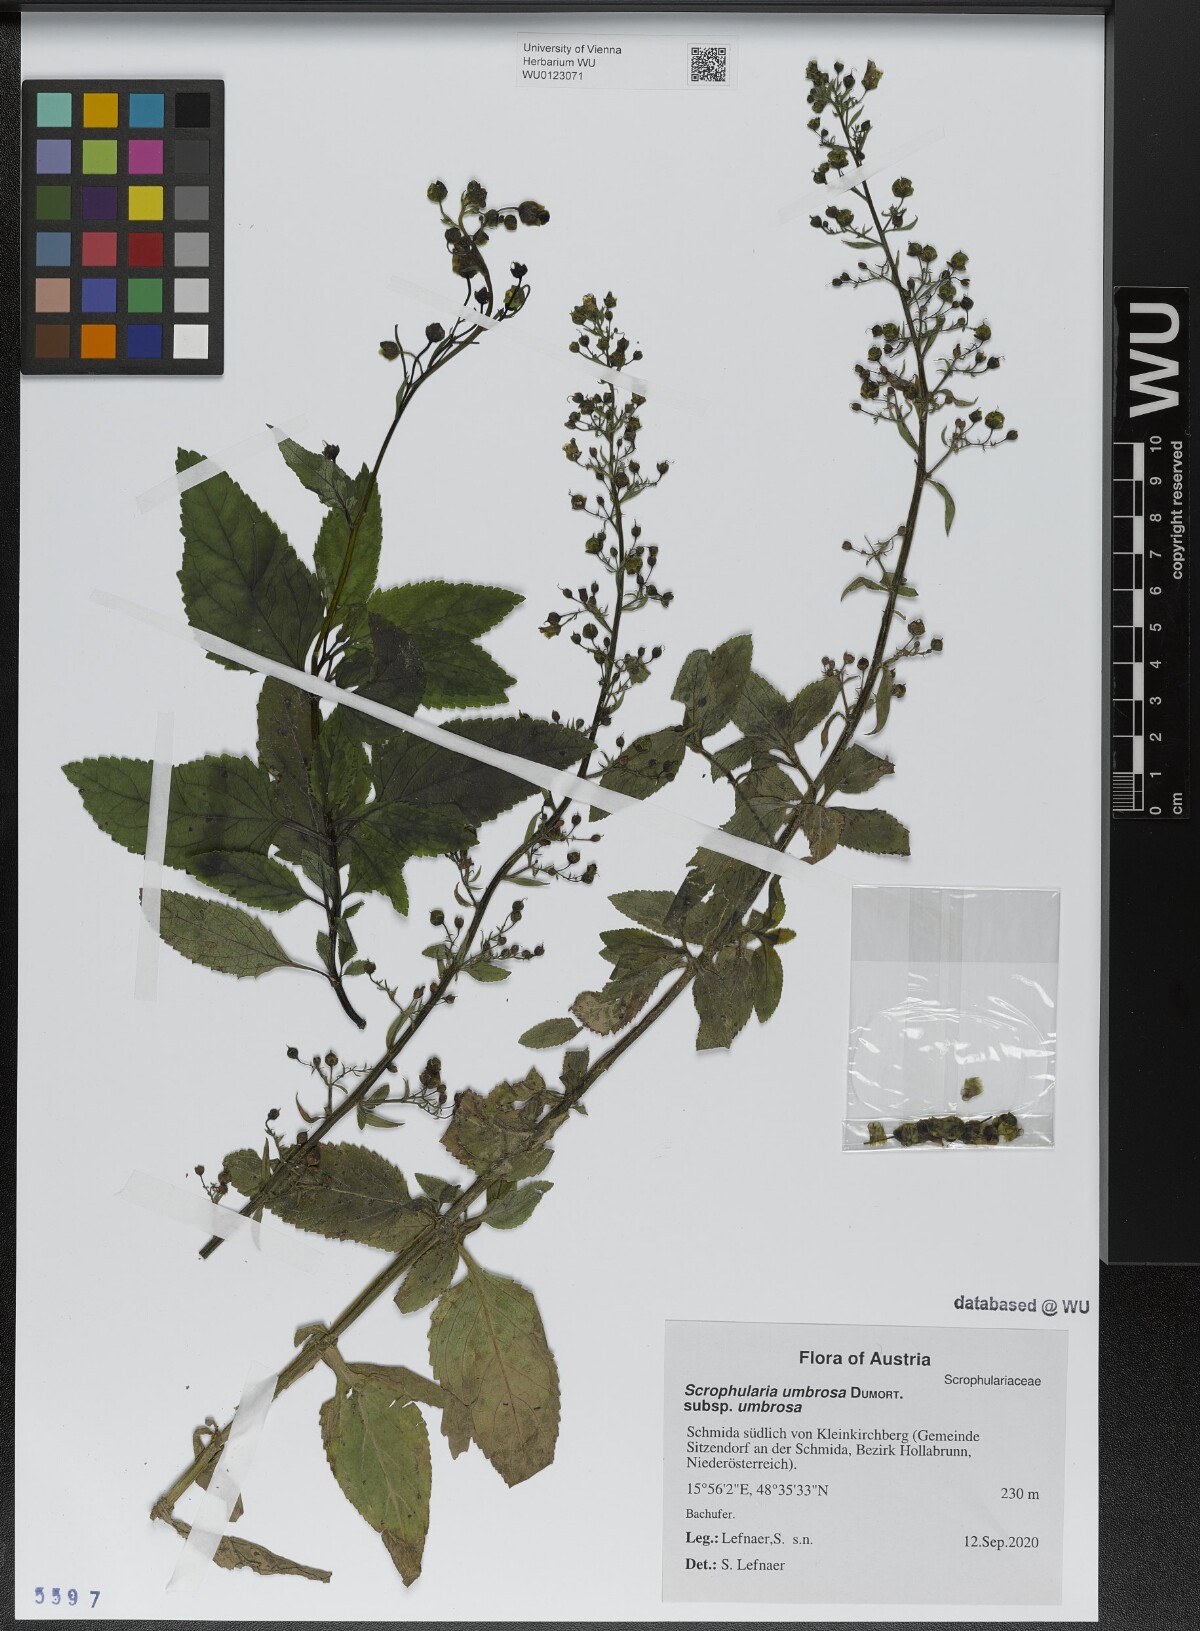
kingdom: Plantae
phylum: Tracheophyta
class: Magnoliopsida
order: Lamiales
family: Scrophulariaceae
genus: Scrophularia
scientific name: Scrophularia umbrosa
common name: Green figwort
